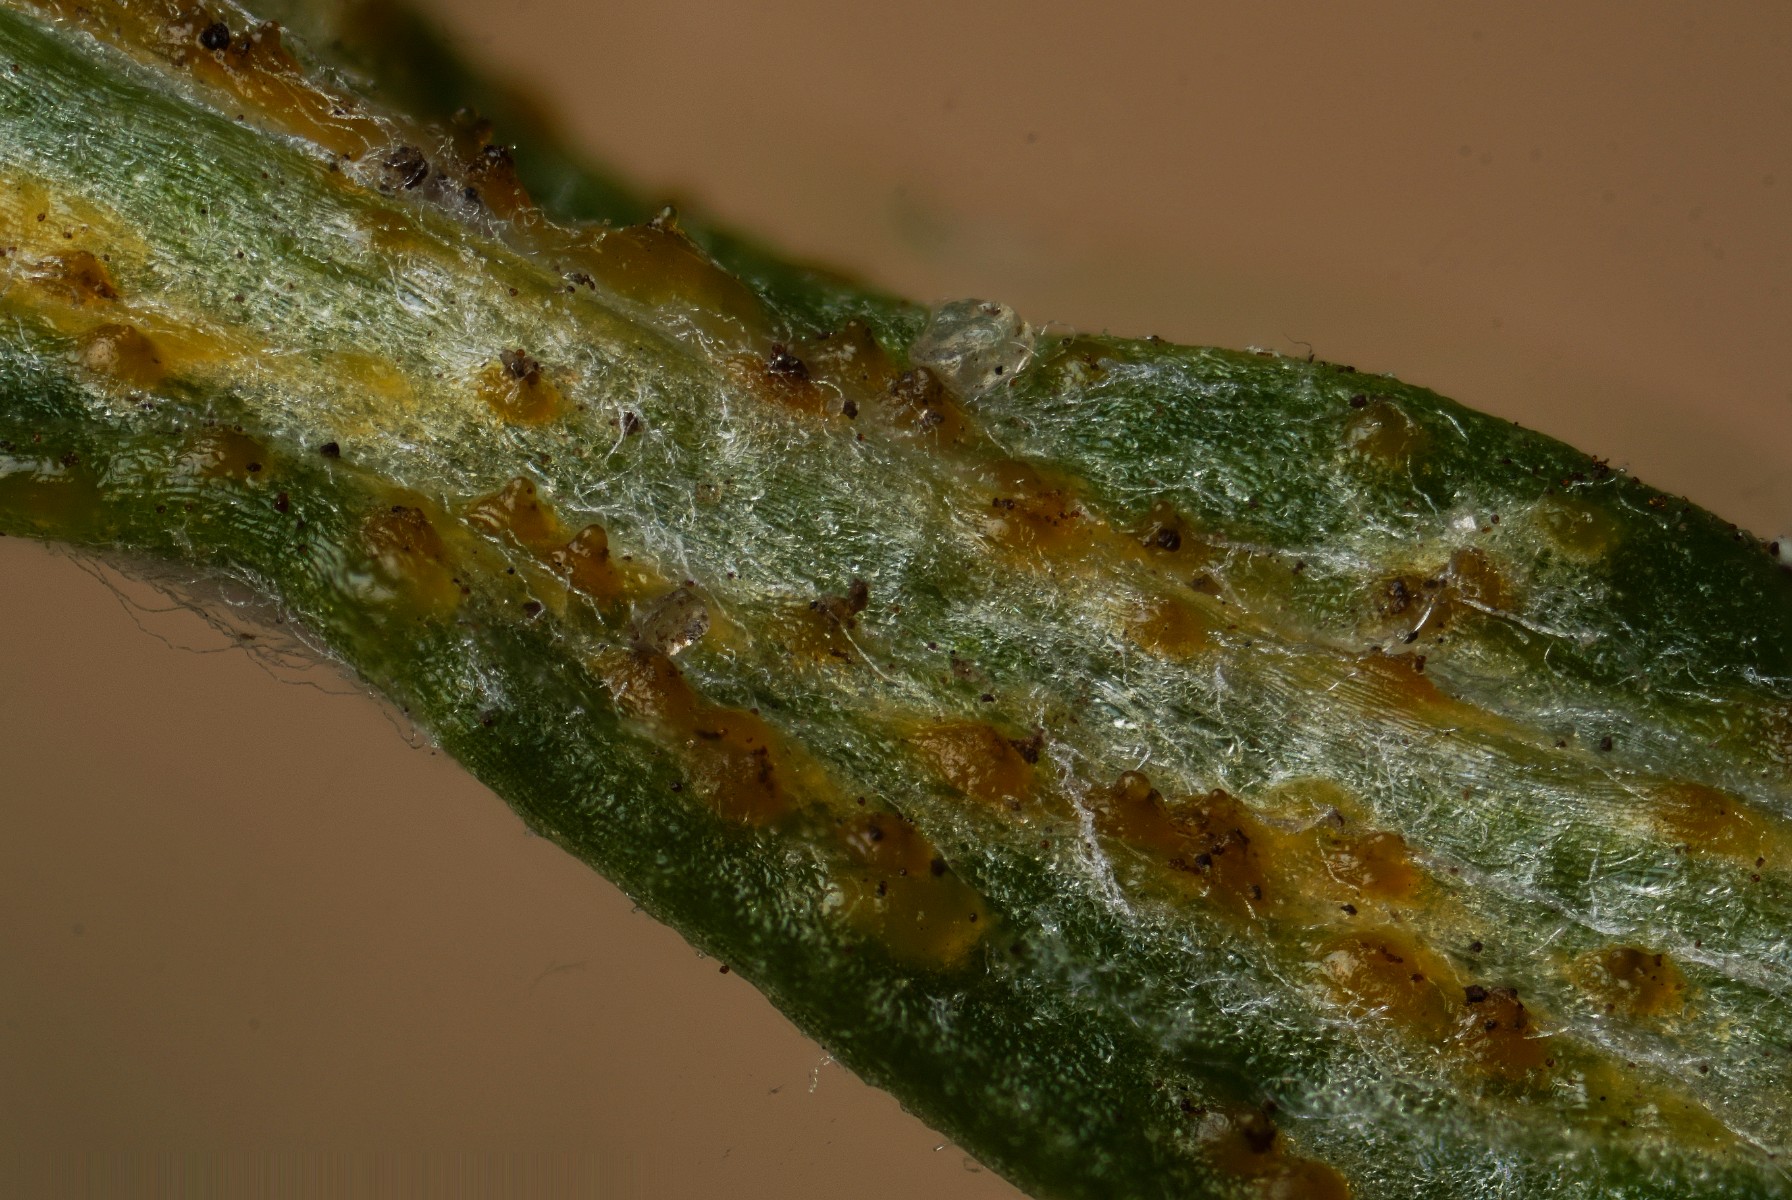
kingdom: Fungi
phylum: Basidiomycota
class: Pucciniomycetes
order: Pucciniales
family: Pucciniaceae
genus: Puccinia
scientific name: Puccinia cyani
